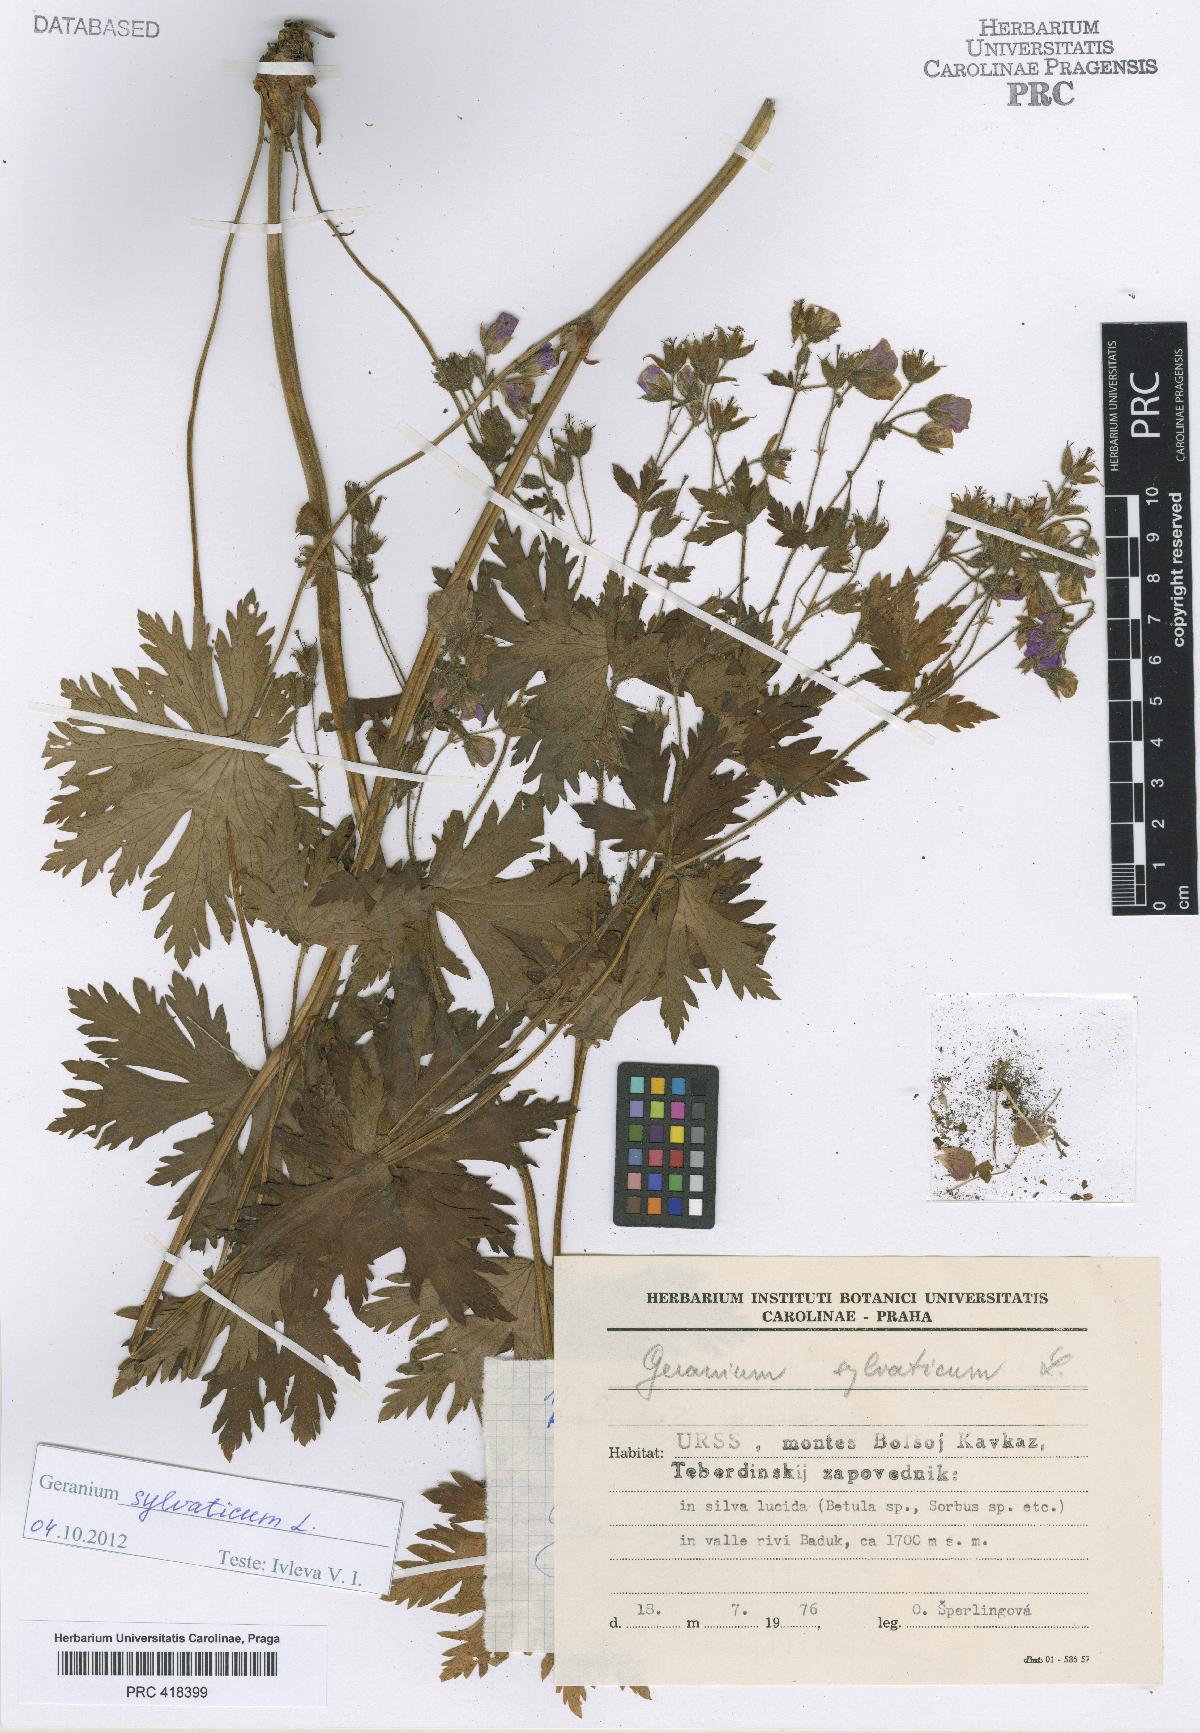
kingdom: Plantae
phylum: Tracheophyta
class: Magnoliopsida
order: Geraniales
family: Geraniaceae
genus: Geranium
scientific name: Geranium sylvaticum
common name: Wood crane's-bill
